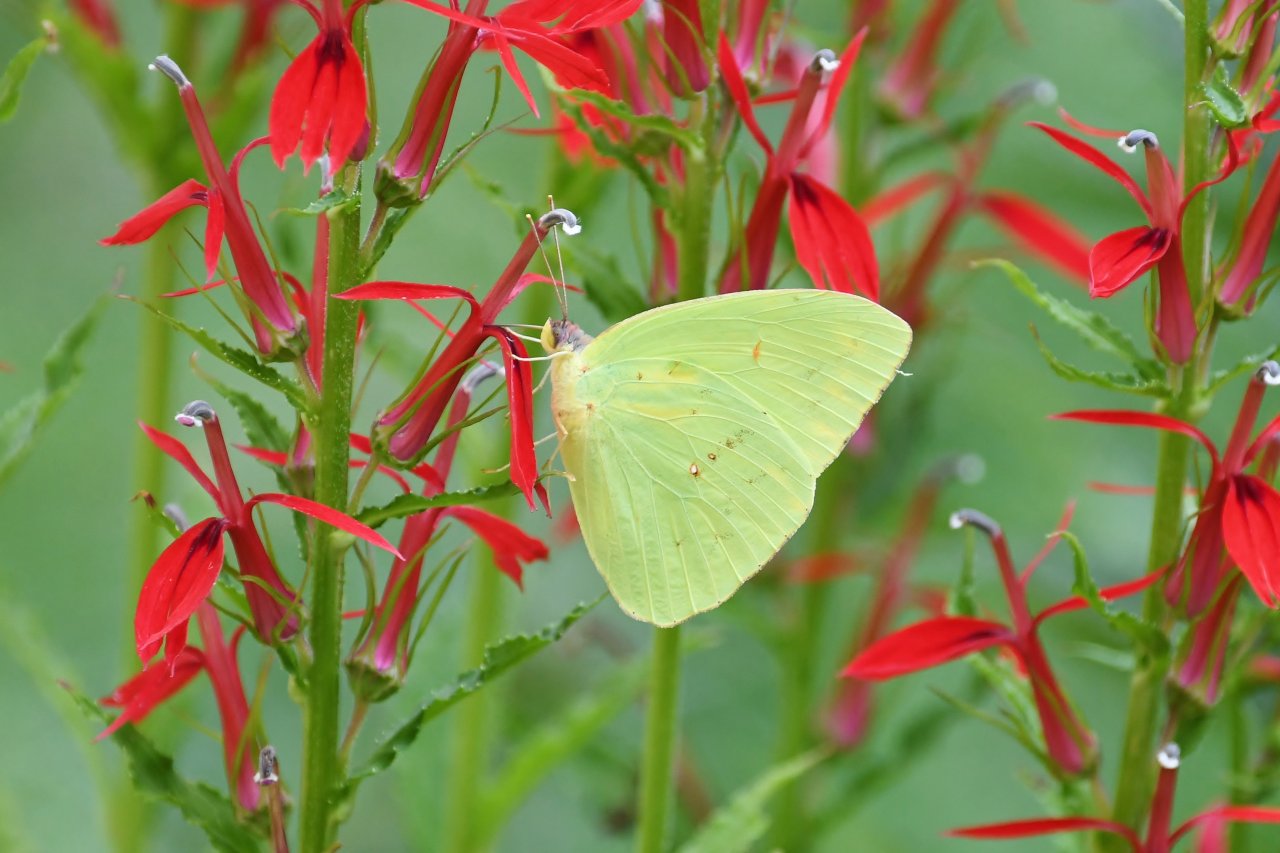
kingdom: Animalia
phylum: Arthropoda
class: Insecta
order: Lepidoptera
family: Pieridae
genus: Phoebis
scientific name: Phoebis sennae
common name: Cloudless Sulphur
